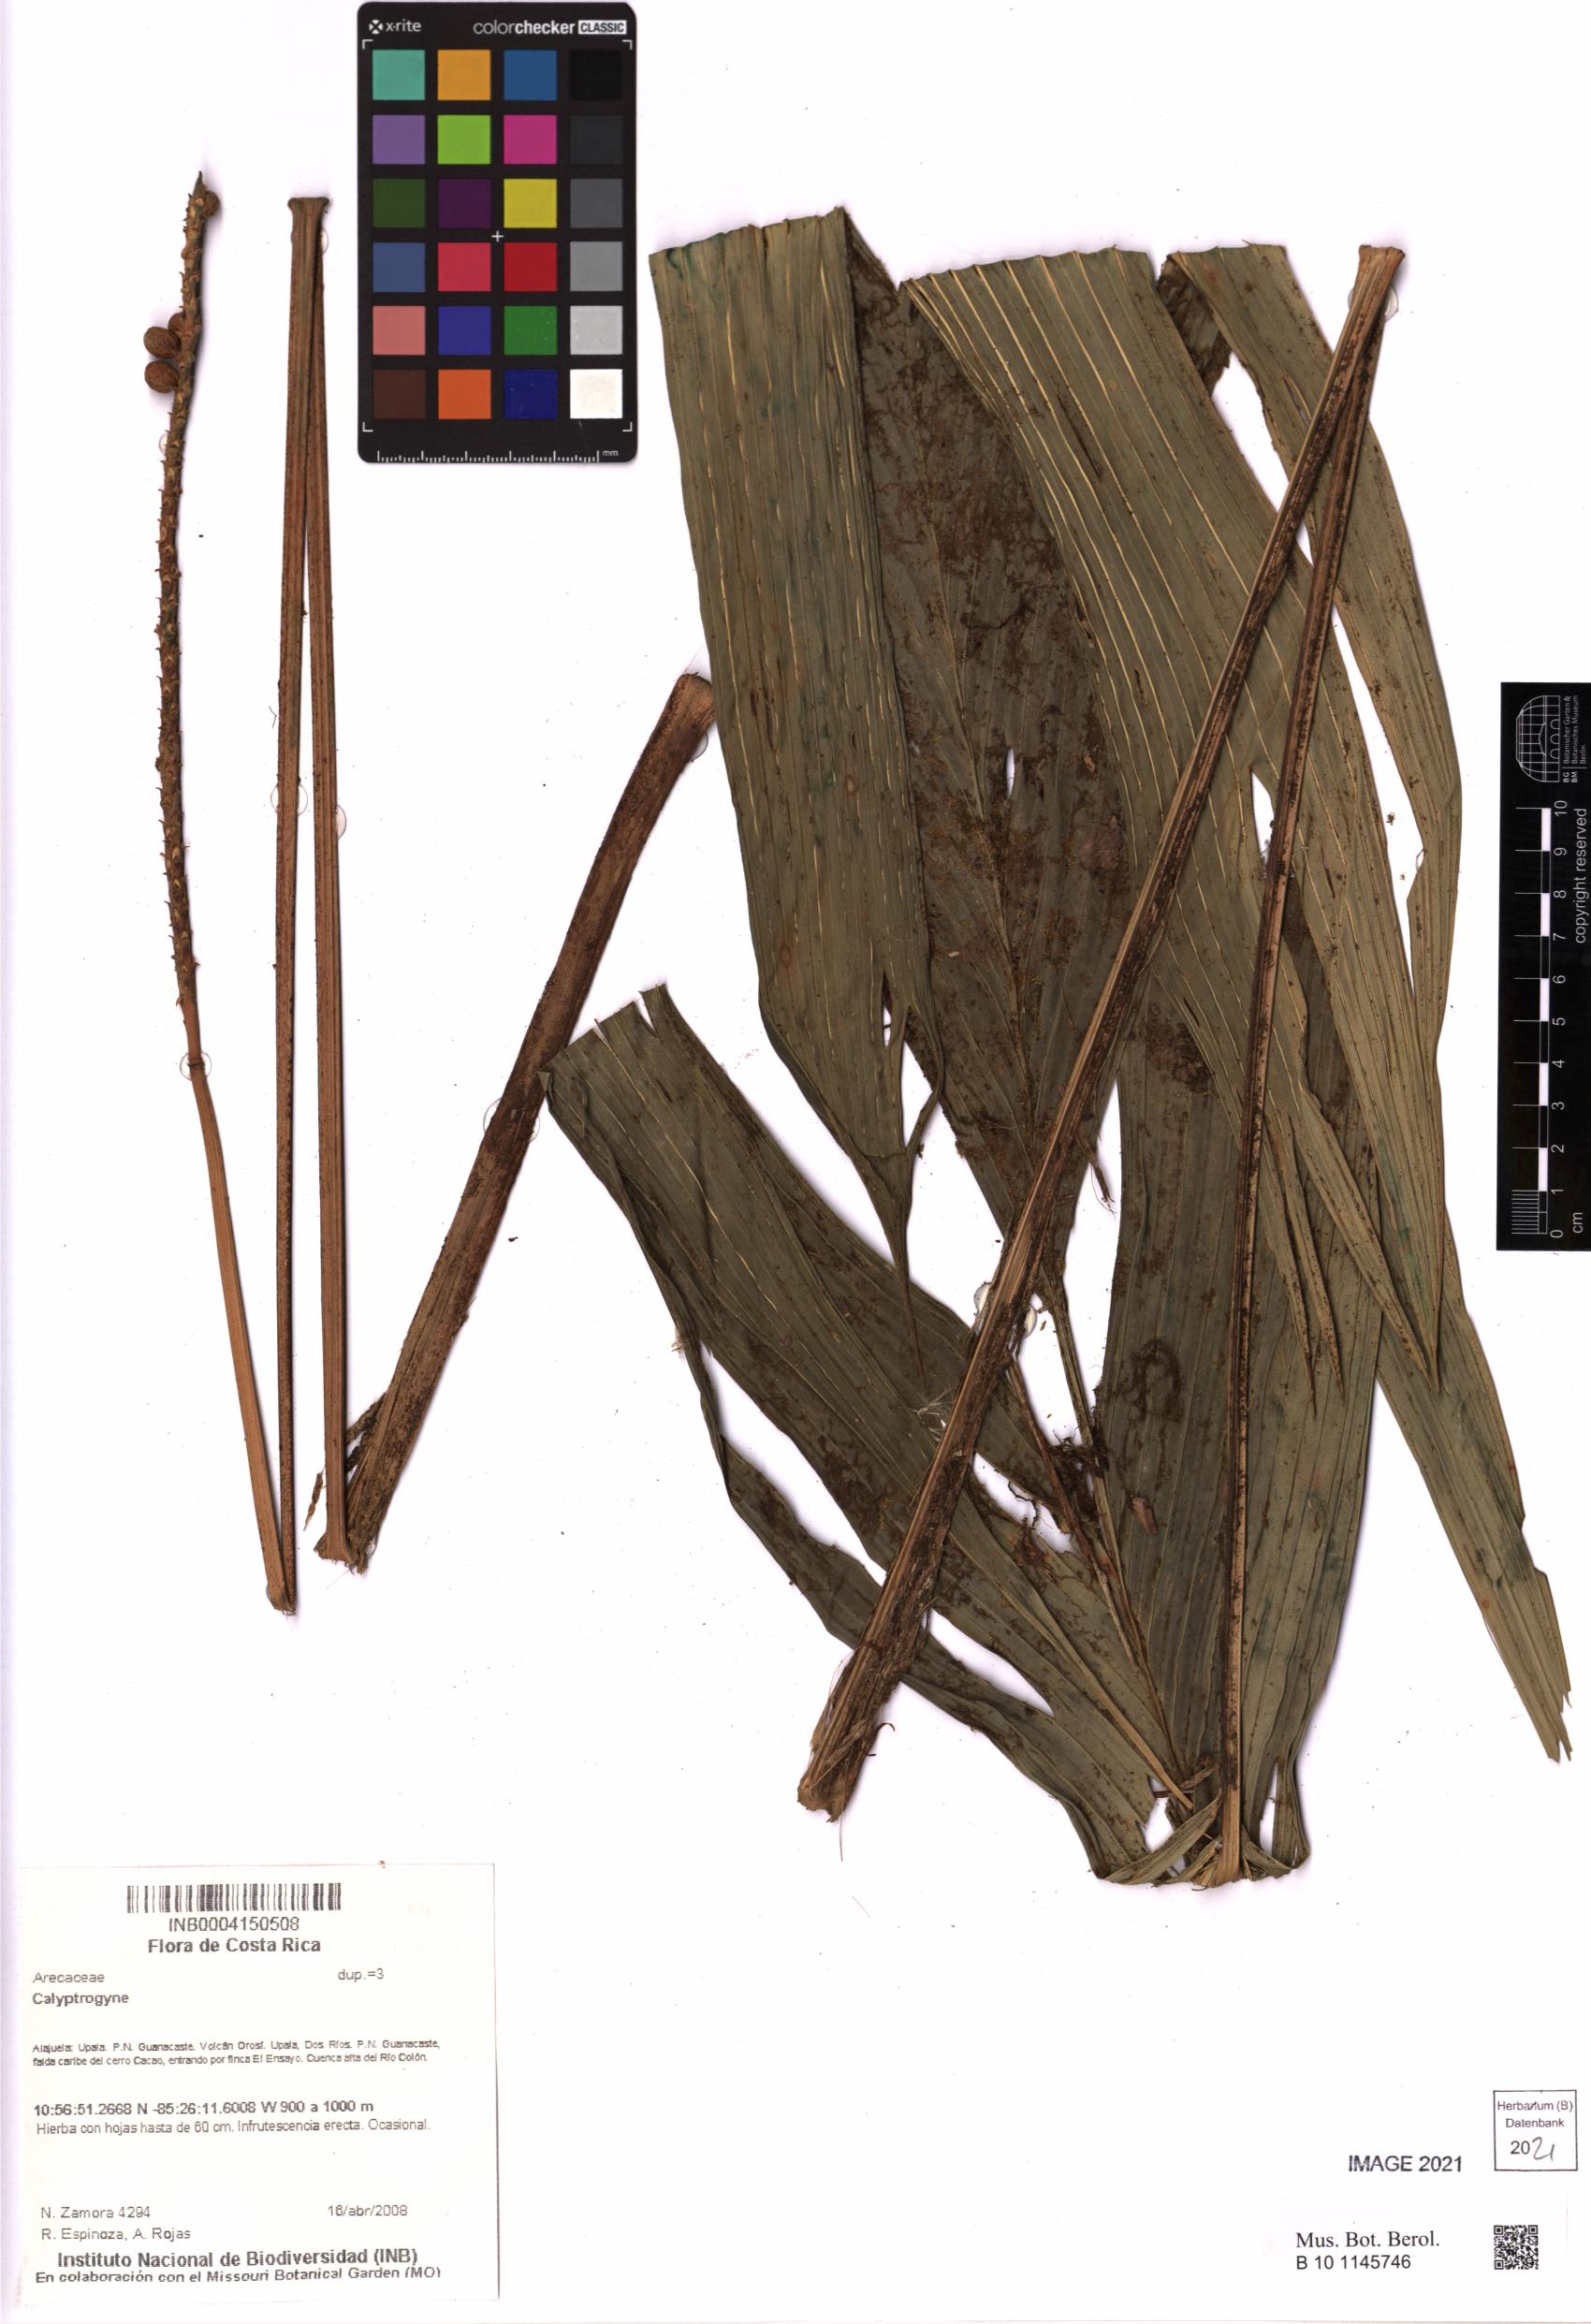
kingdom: Plantae
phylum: Tracheophyta
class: Liliopsida
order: Arecales
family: Arecaceae
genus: Calyptrogyne
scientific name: Calyptrogyne
